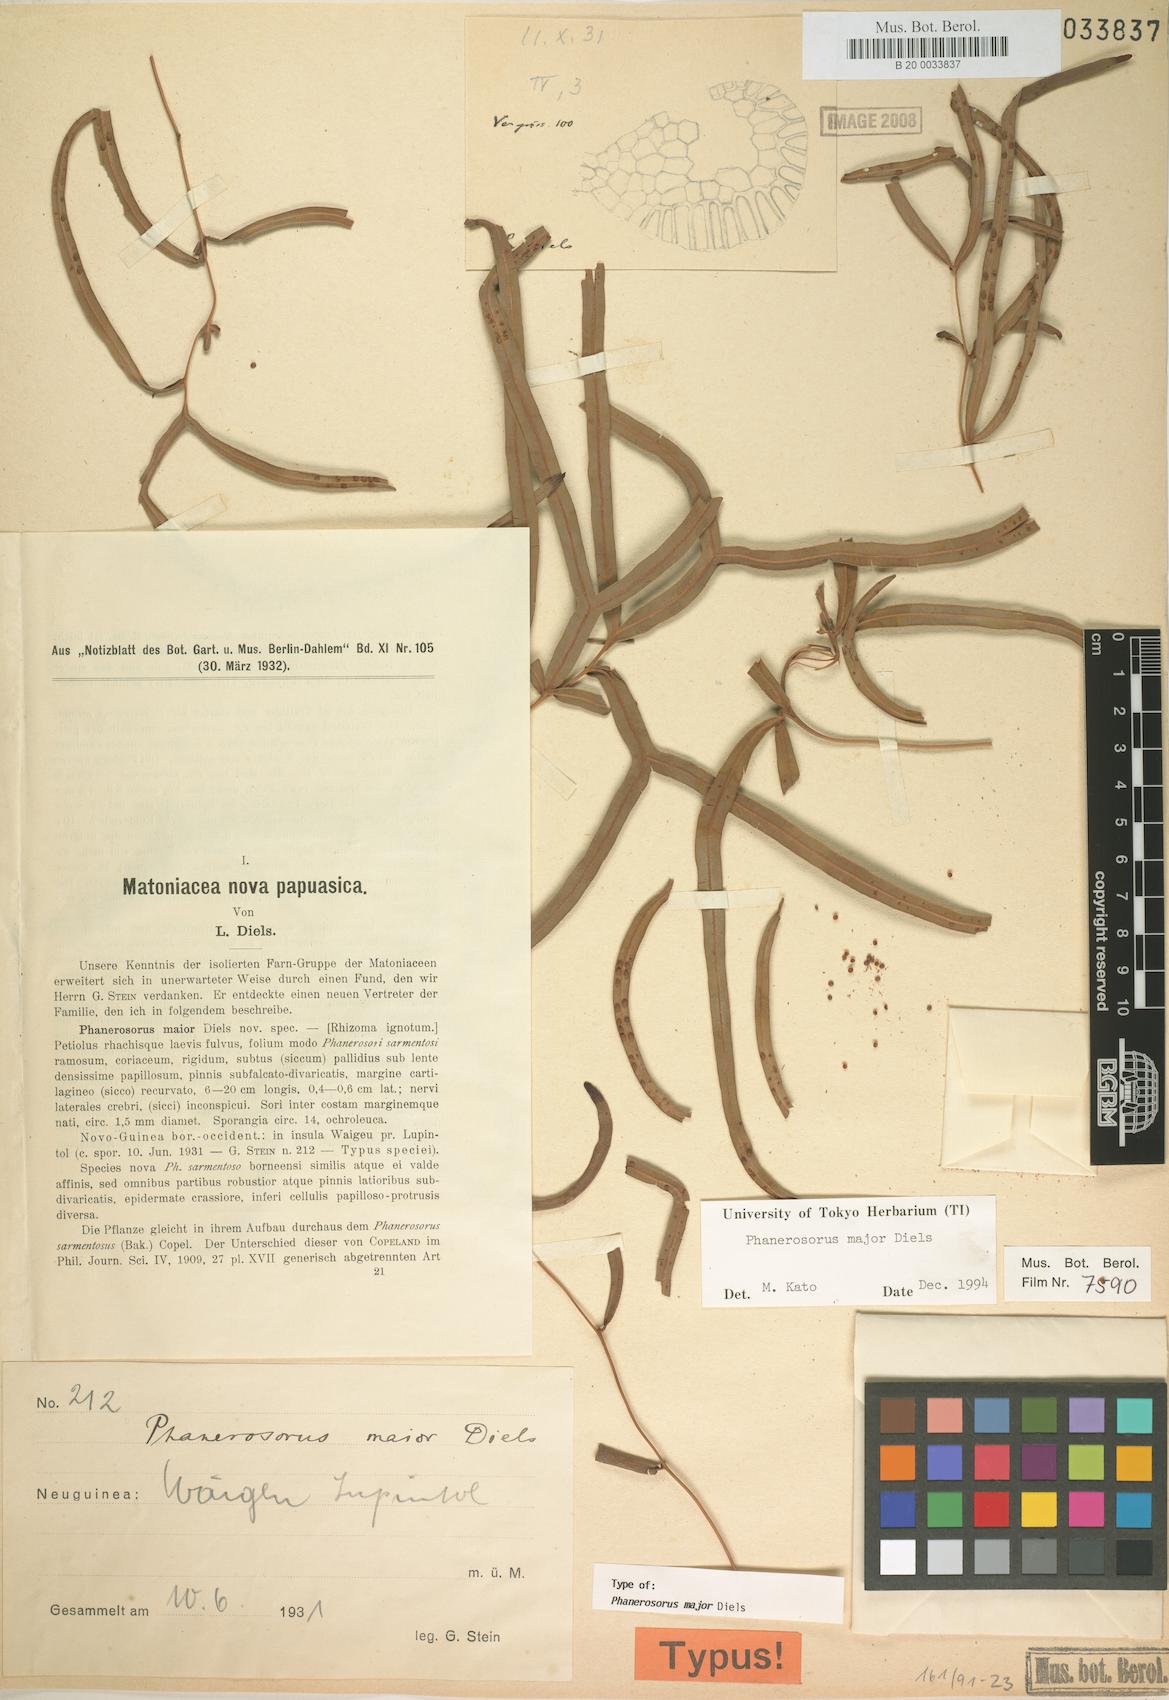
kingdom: Plantae
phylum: Tracheophyta
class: Polypodiopsida
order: Gleicheniales
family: Matoniaceae
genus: Phanerosorus
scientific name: Phanerosorus major
